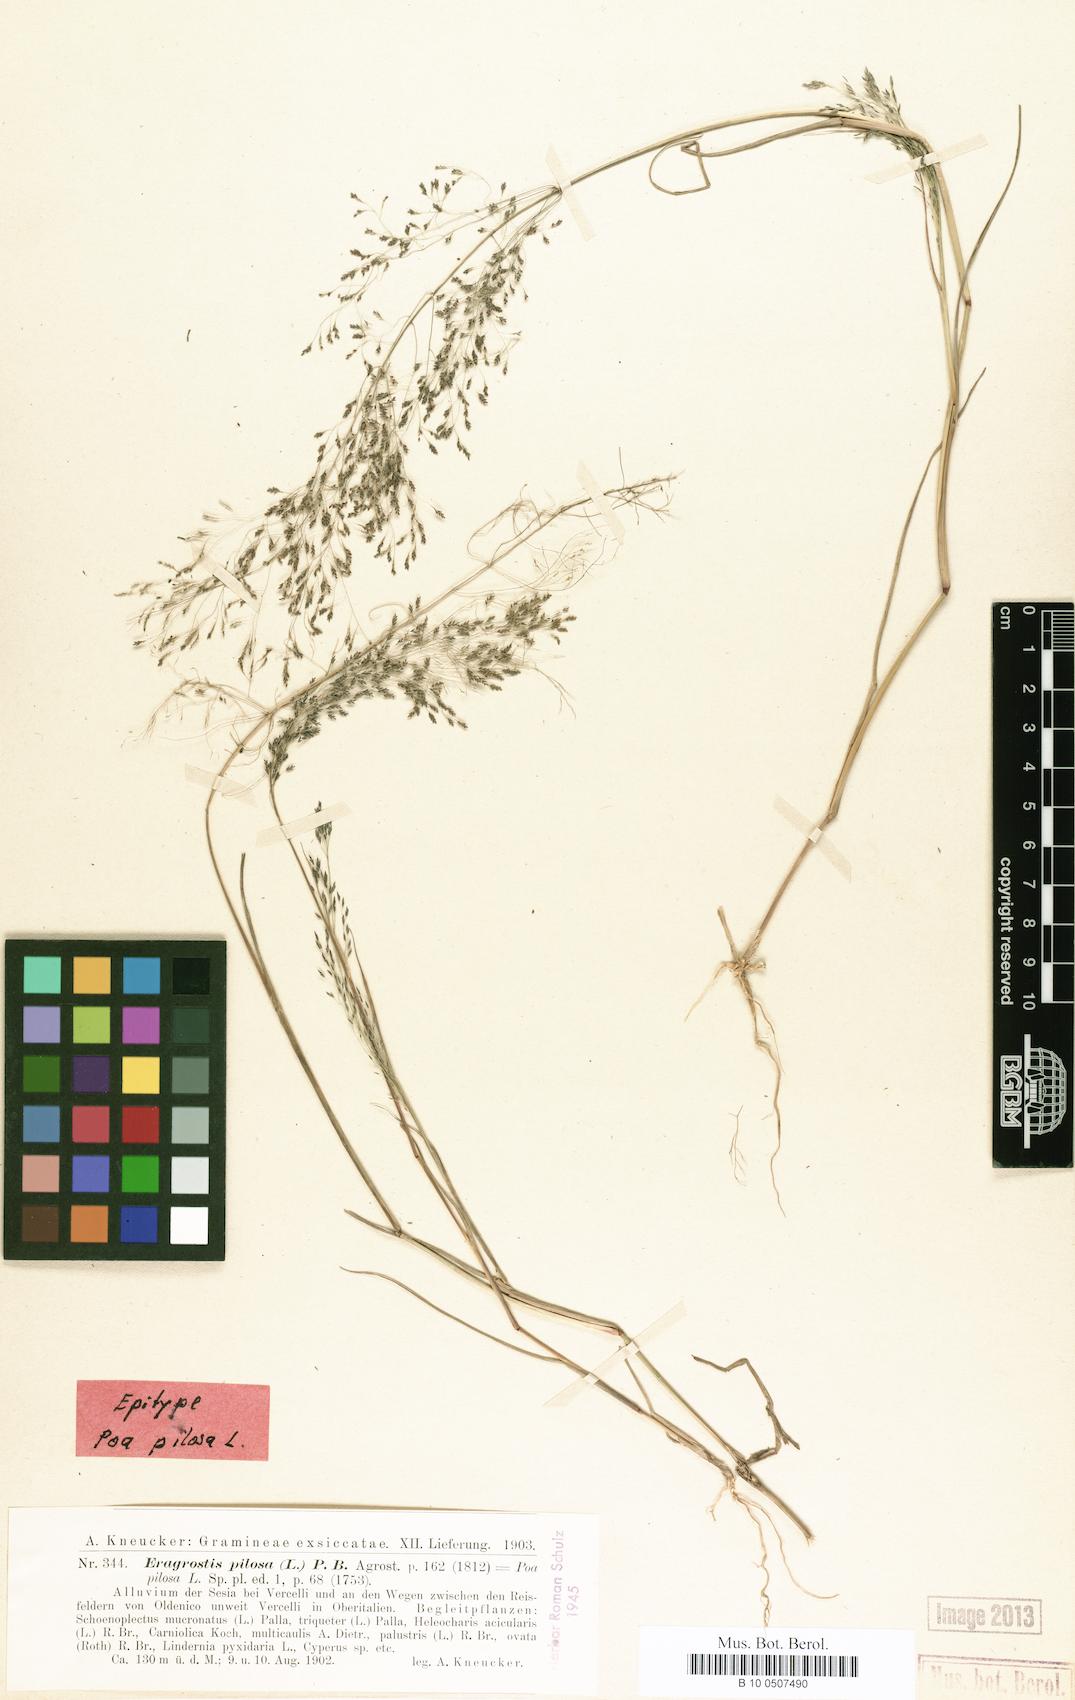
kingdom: Plantae
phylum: Tracheophyta
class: Liliopsida
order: Poales
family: Poaceae
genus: Eragrostis
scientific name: Eragrostis pilosa
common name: Indian lovegrass
